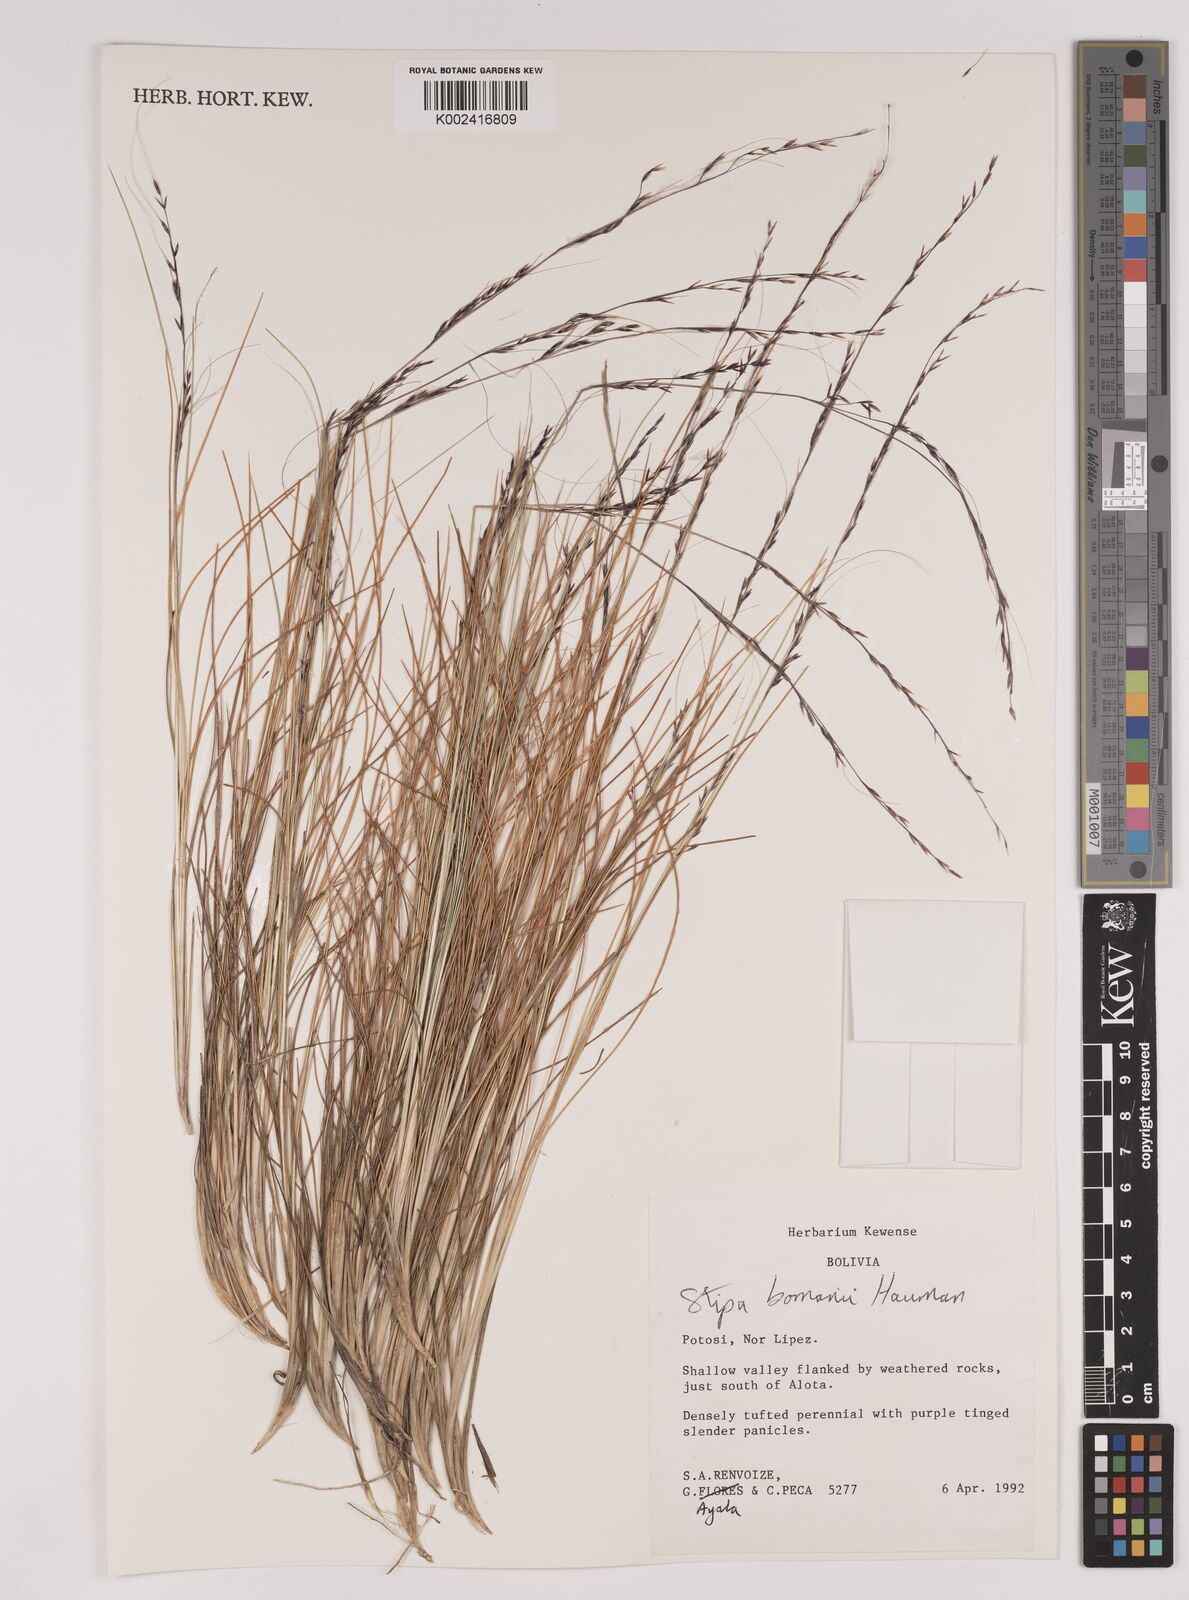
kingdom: Plantae
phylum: Tracheophyta
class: Liliopsida
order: Poales
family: Poaceae
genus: Stipa
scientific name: Stipa bomanii
